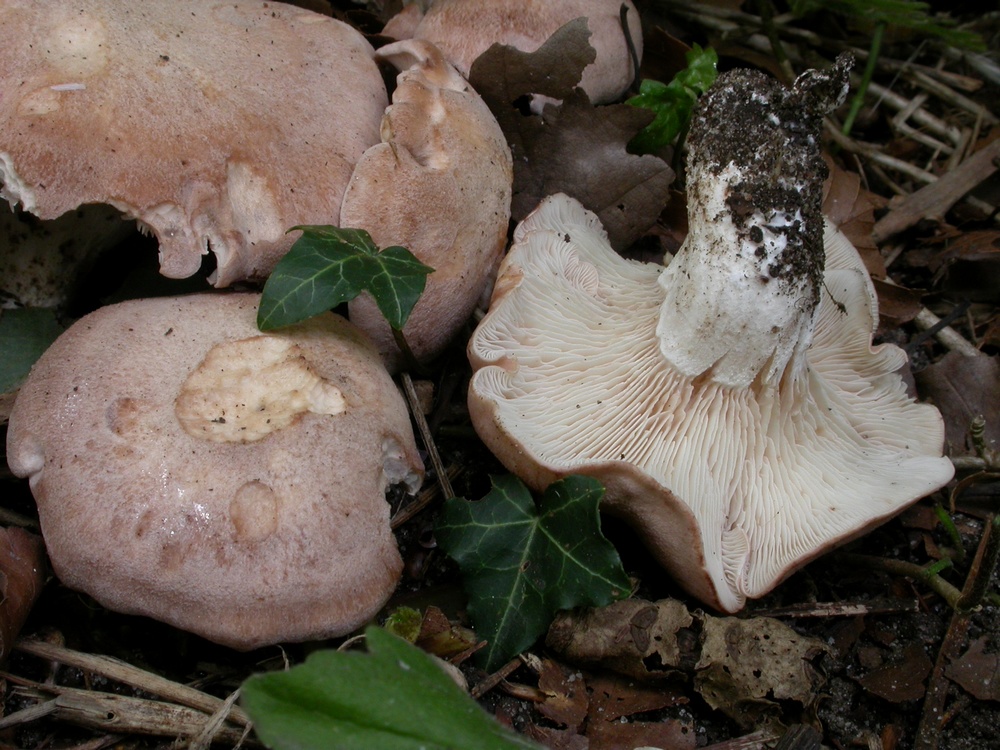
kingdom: Fungi
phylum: Basidiomycota
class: Agaricomycetes
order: Agaricales
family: Entolomataceae
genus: Clitopilus
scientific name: Clitopilus geminus
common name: kødfarvet troldhat
